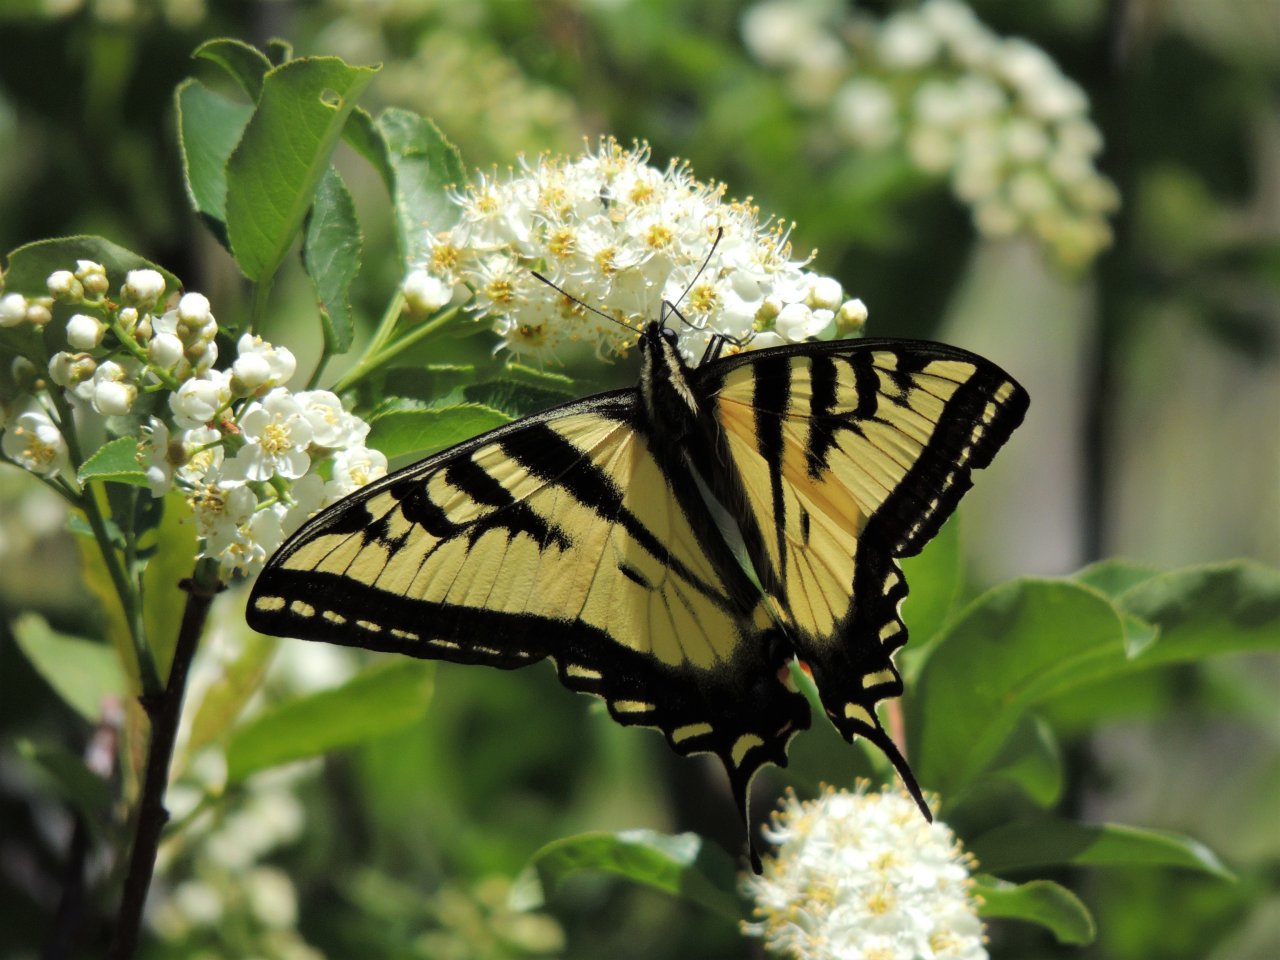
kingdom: Animalia
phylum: Arthropoda
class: Insecta
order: Lepidoptera
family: Papilionidae
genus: Pterourus
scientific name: Pterourus rutulus
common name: Western Tiger Swallowtail
